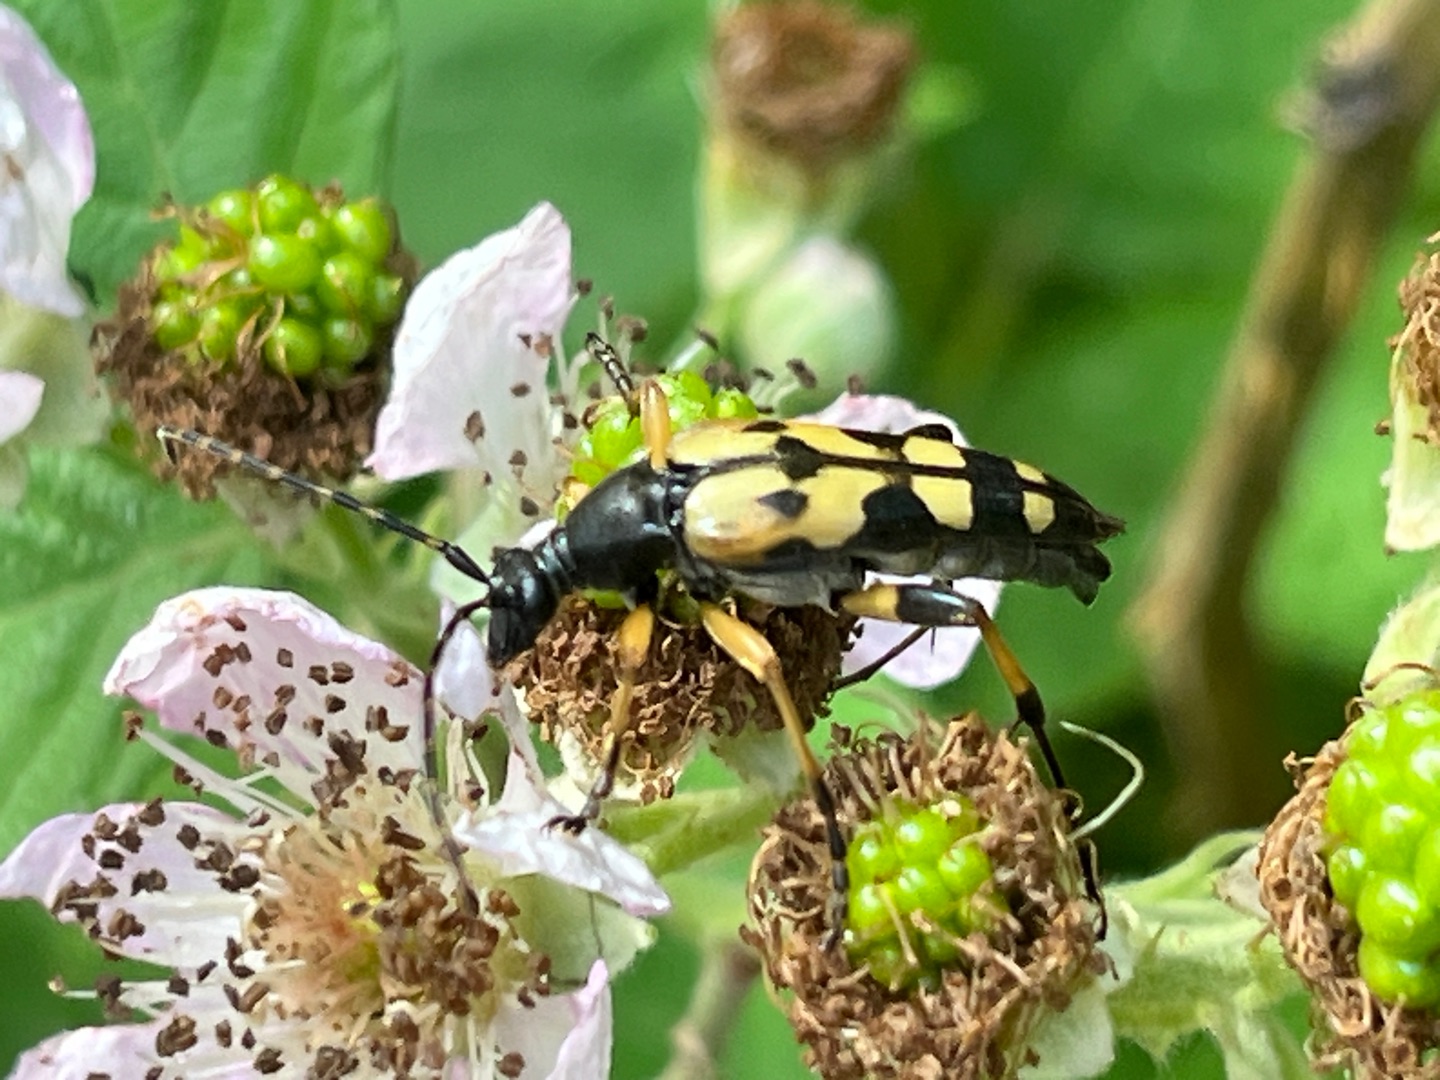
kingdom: Animalia
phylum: Arthropoda
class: Insecta
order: Coleoptera
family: Cerambycidae
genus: Rutpela
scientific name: Rutpela maculata
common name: Sydlig blomsterbuk
